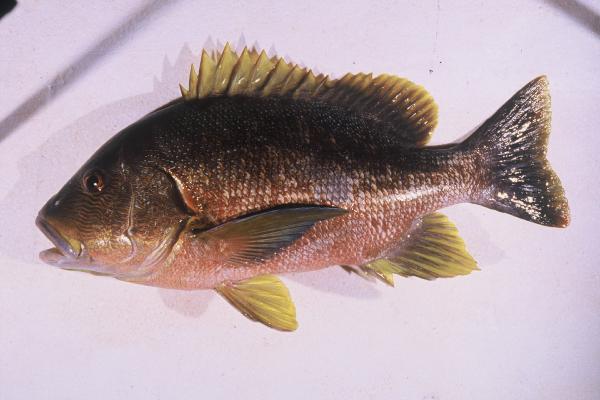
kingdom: Animalia
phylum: Chordata
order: Perciformes
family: Lutjanidae
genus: Lutjanus
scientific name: Lutjanus rivulatus
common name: Blubberlip snapper
